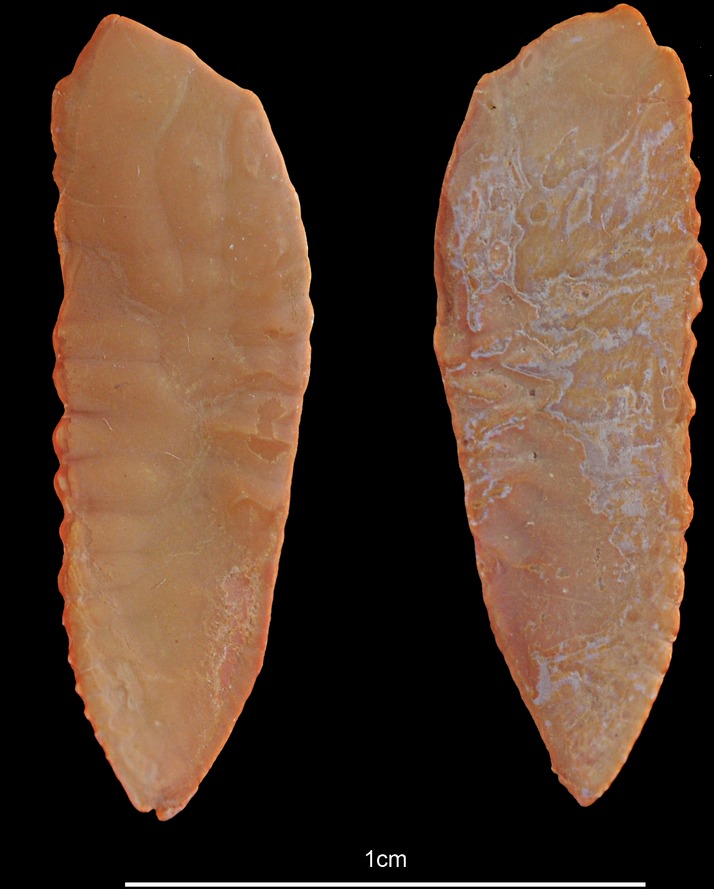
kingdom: Animalia
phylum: Chordata
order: Gadiformes
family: Gadidae
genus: Pollachius
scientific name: Pollachius virens
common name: Saithe
